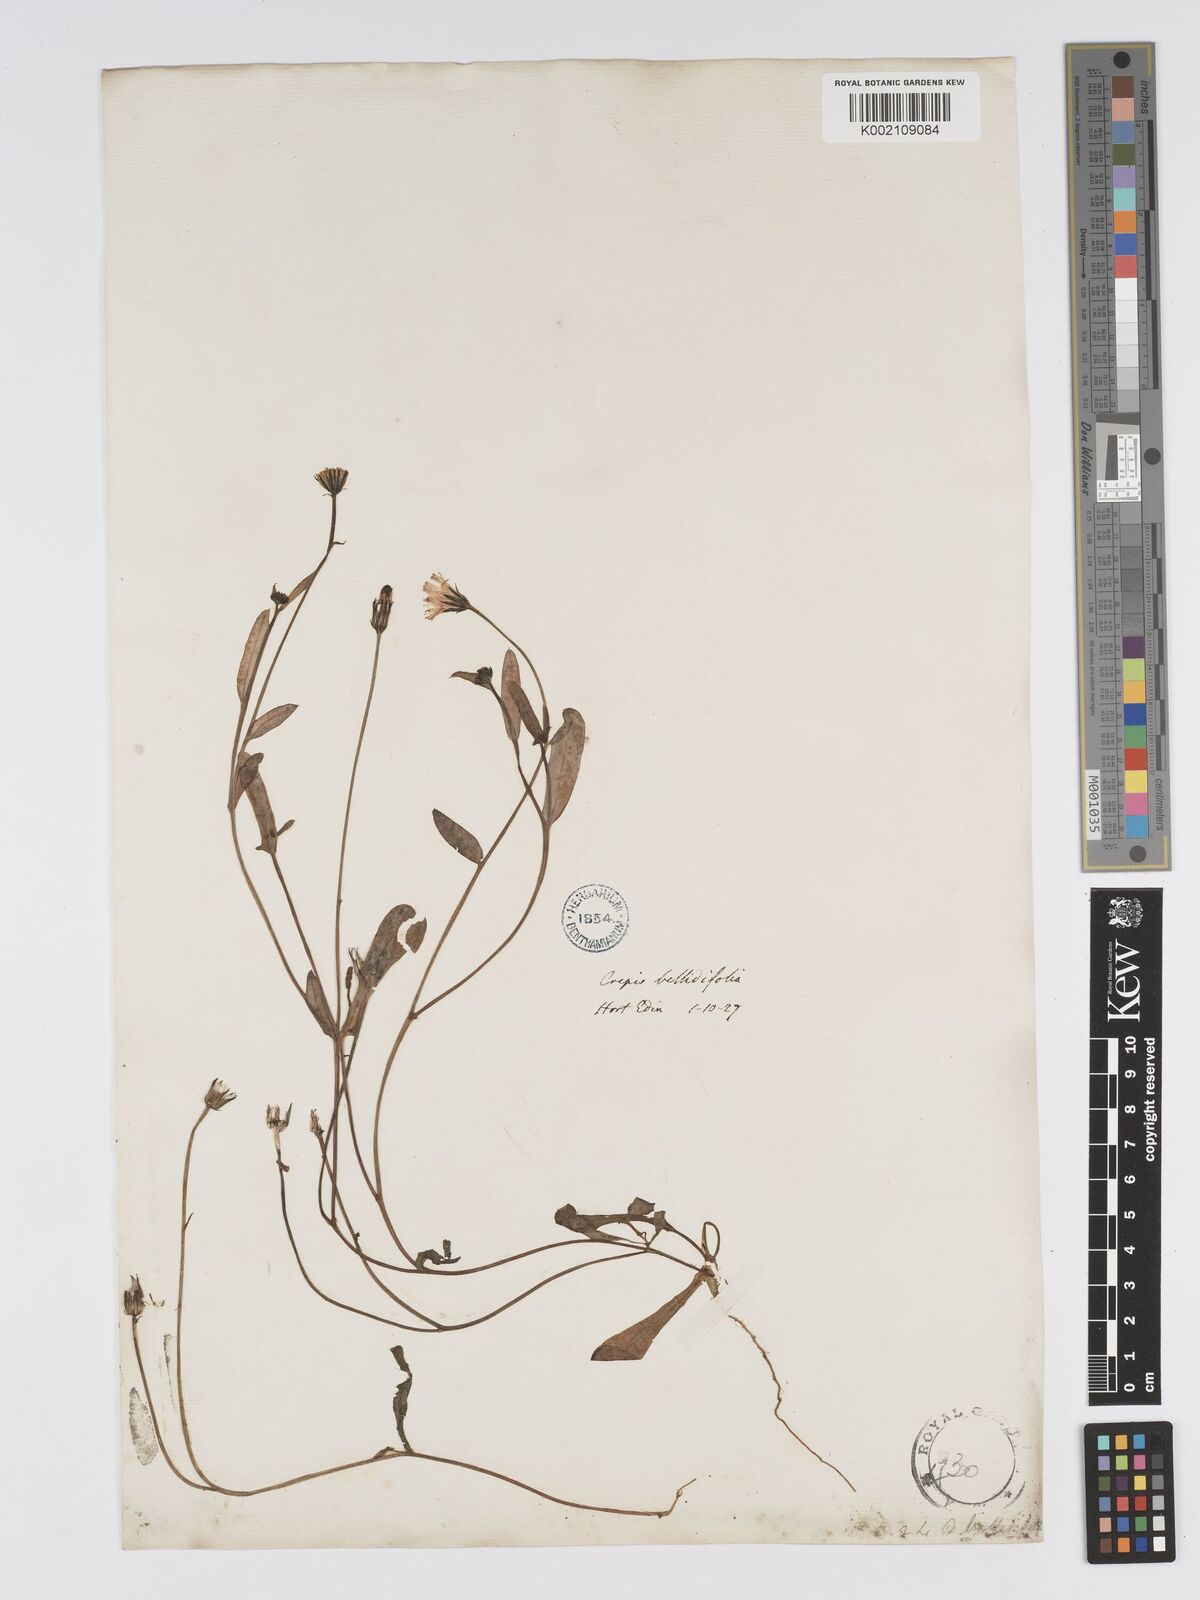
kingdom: Plantae
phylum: Tracheophyta
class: Magnoliopsida
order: Asterales
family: Asteraceae
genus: Crepis
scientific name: Crepis
